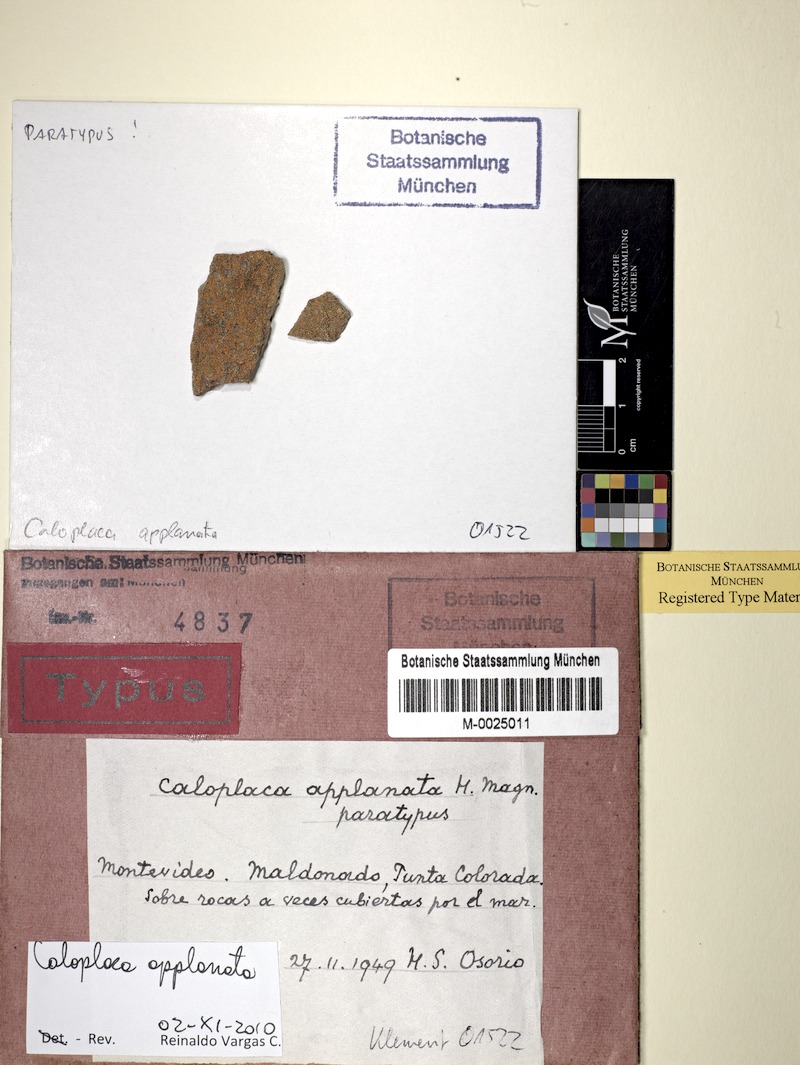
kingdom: Fungi
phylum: Ascomycota
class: Lecanoromycetes
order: Teloschistales
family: Teloschistaceae
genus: Caloplaca
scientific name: Caloplaca
